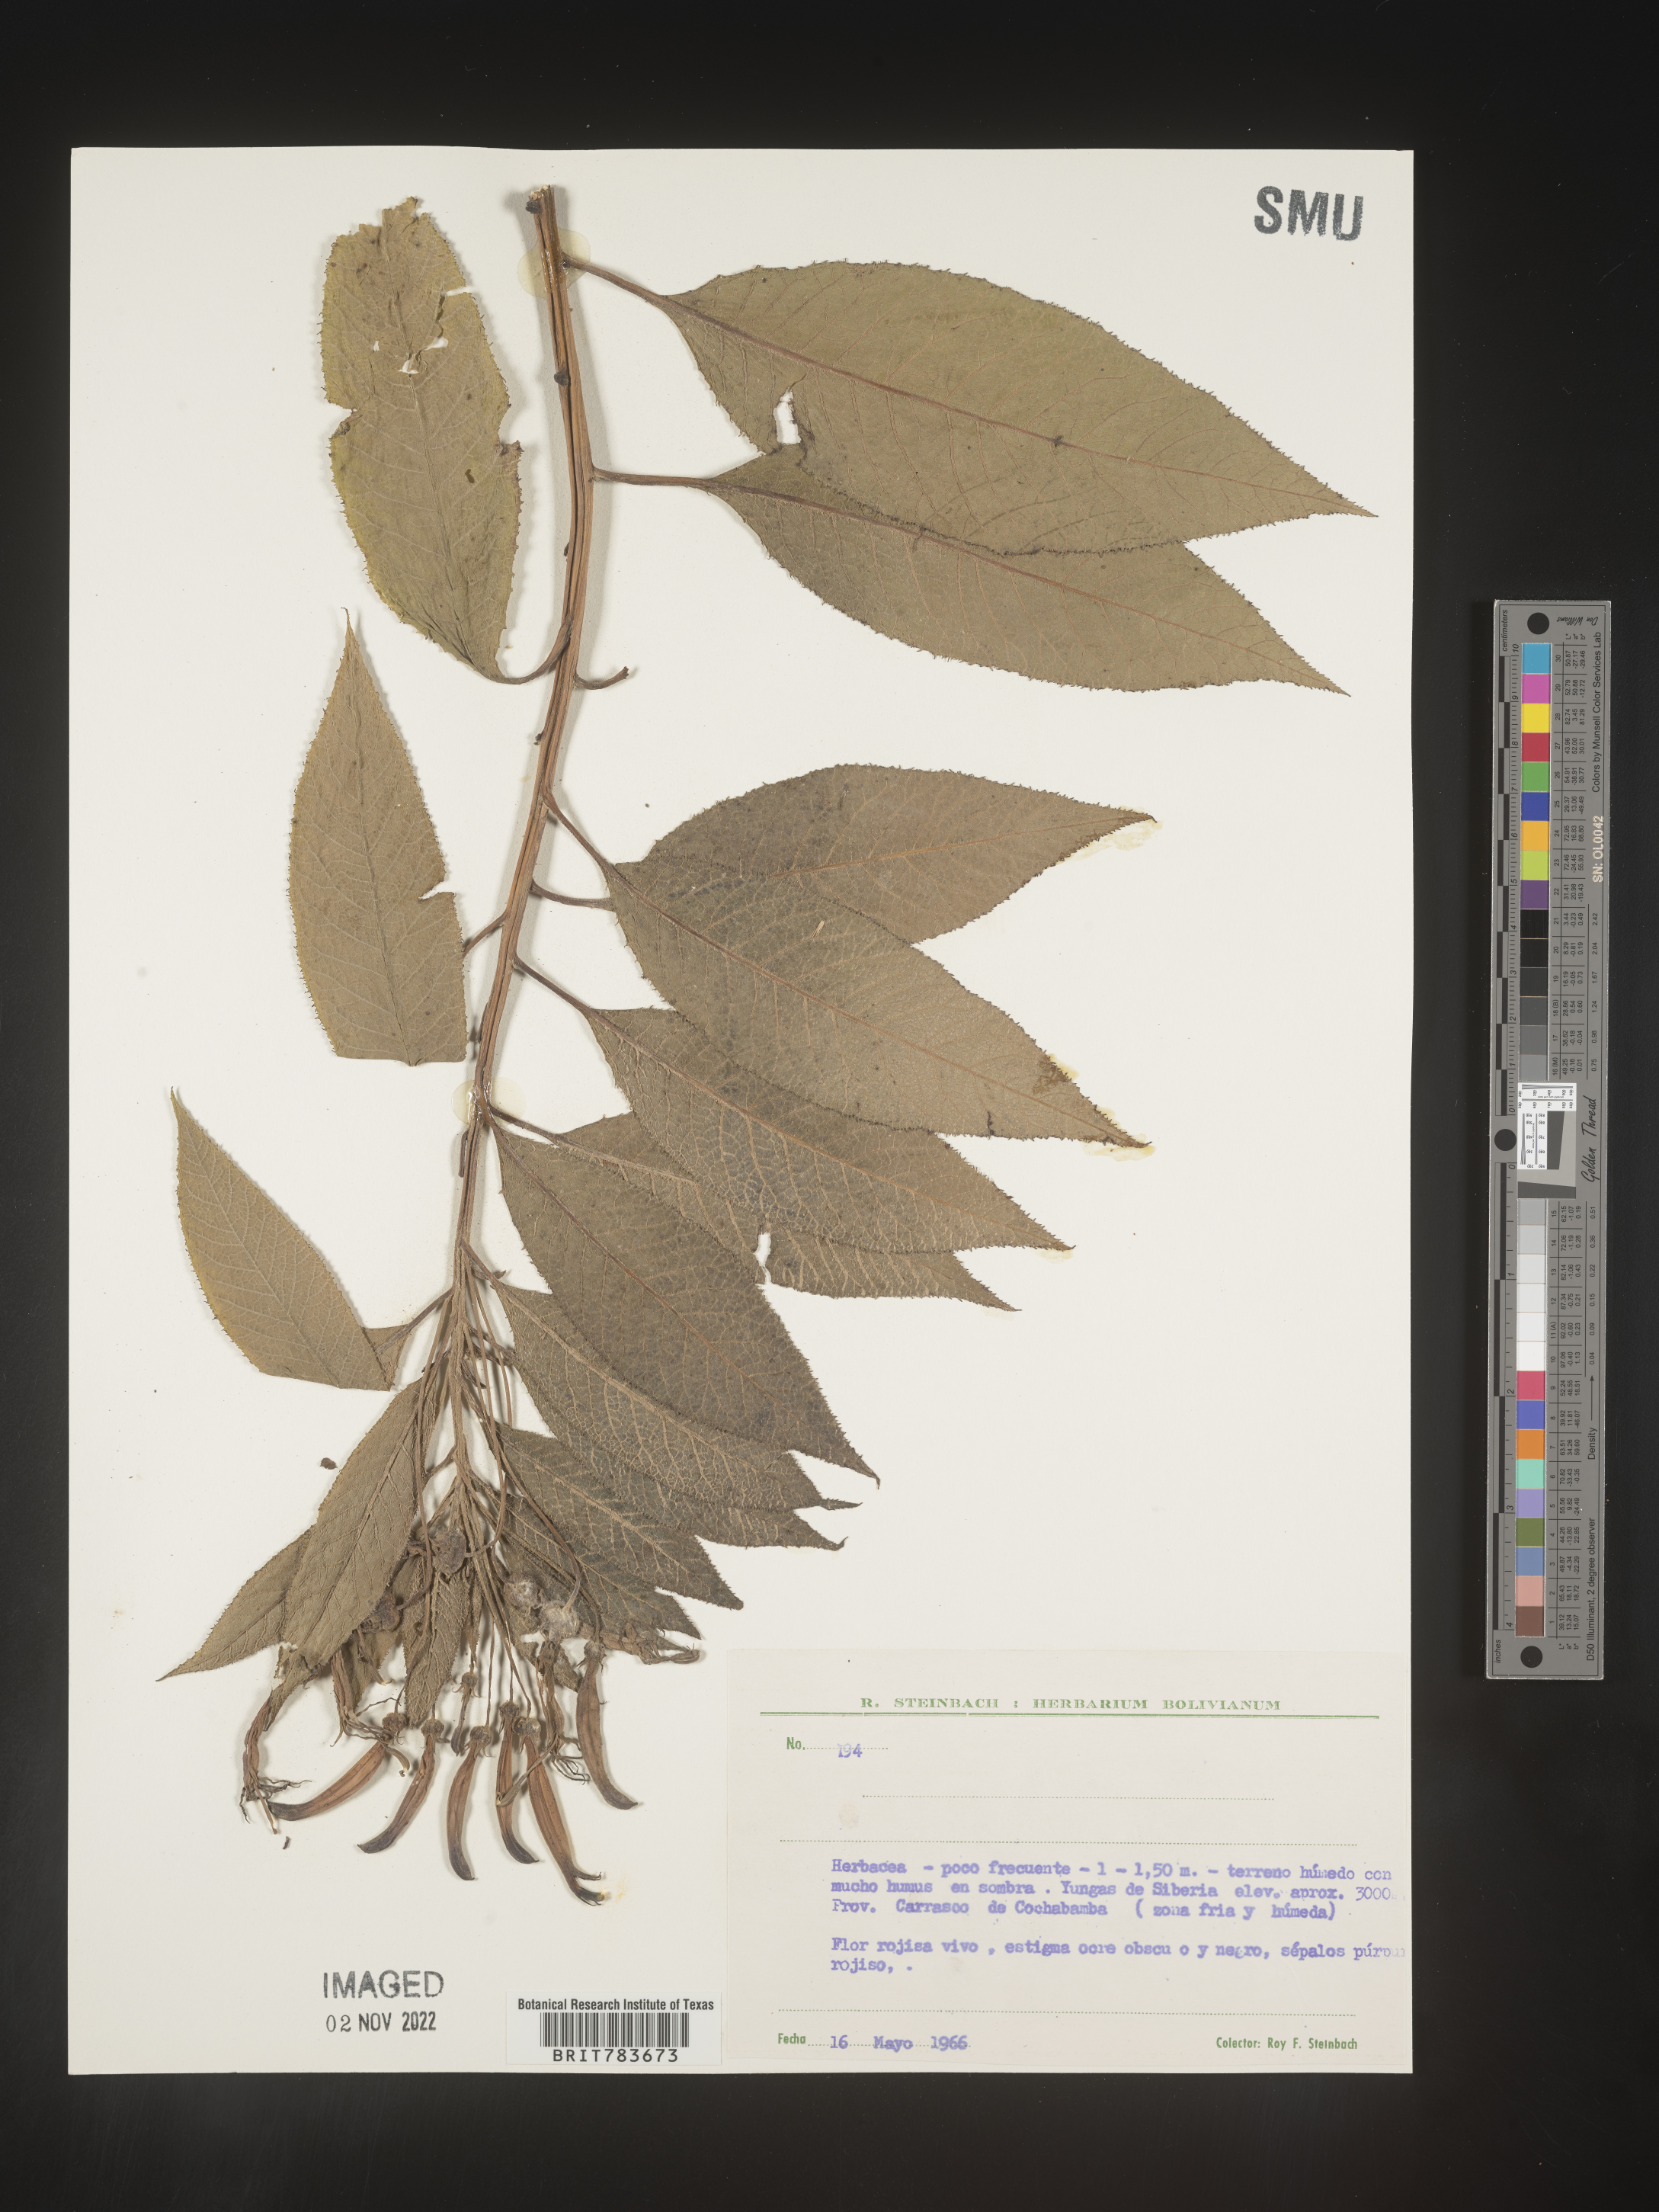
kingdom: Plantae
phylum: Tracheophyta
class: Magnoliopsida
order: Asterales
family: Campanulaceae
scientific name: Campanulaceae
